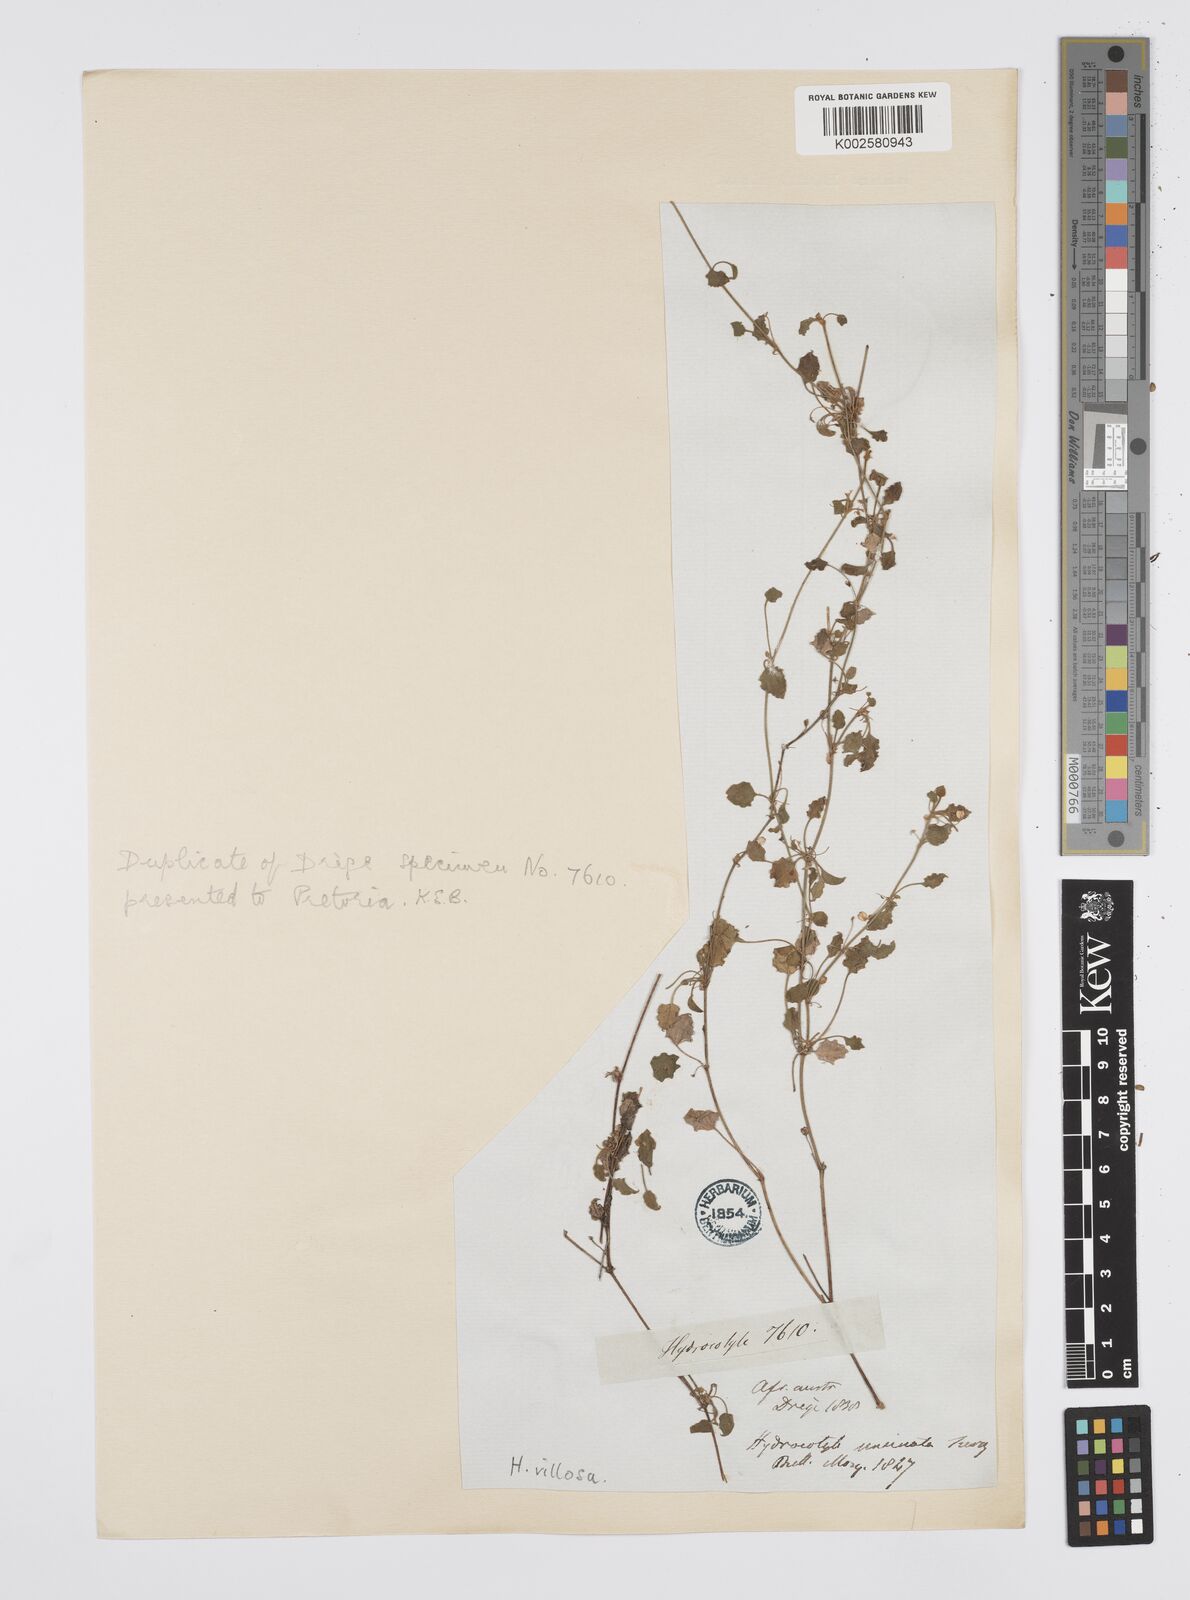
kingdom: Plantae
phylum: Tracheophyta
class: Magnoliopsida
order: Apiales
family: Apiaceae
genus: Centella
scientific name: Centella villosa
